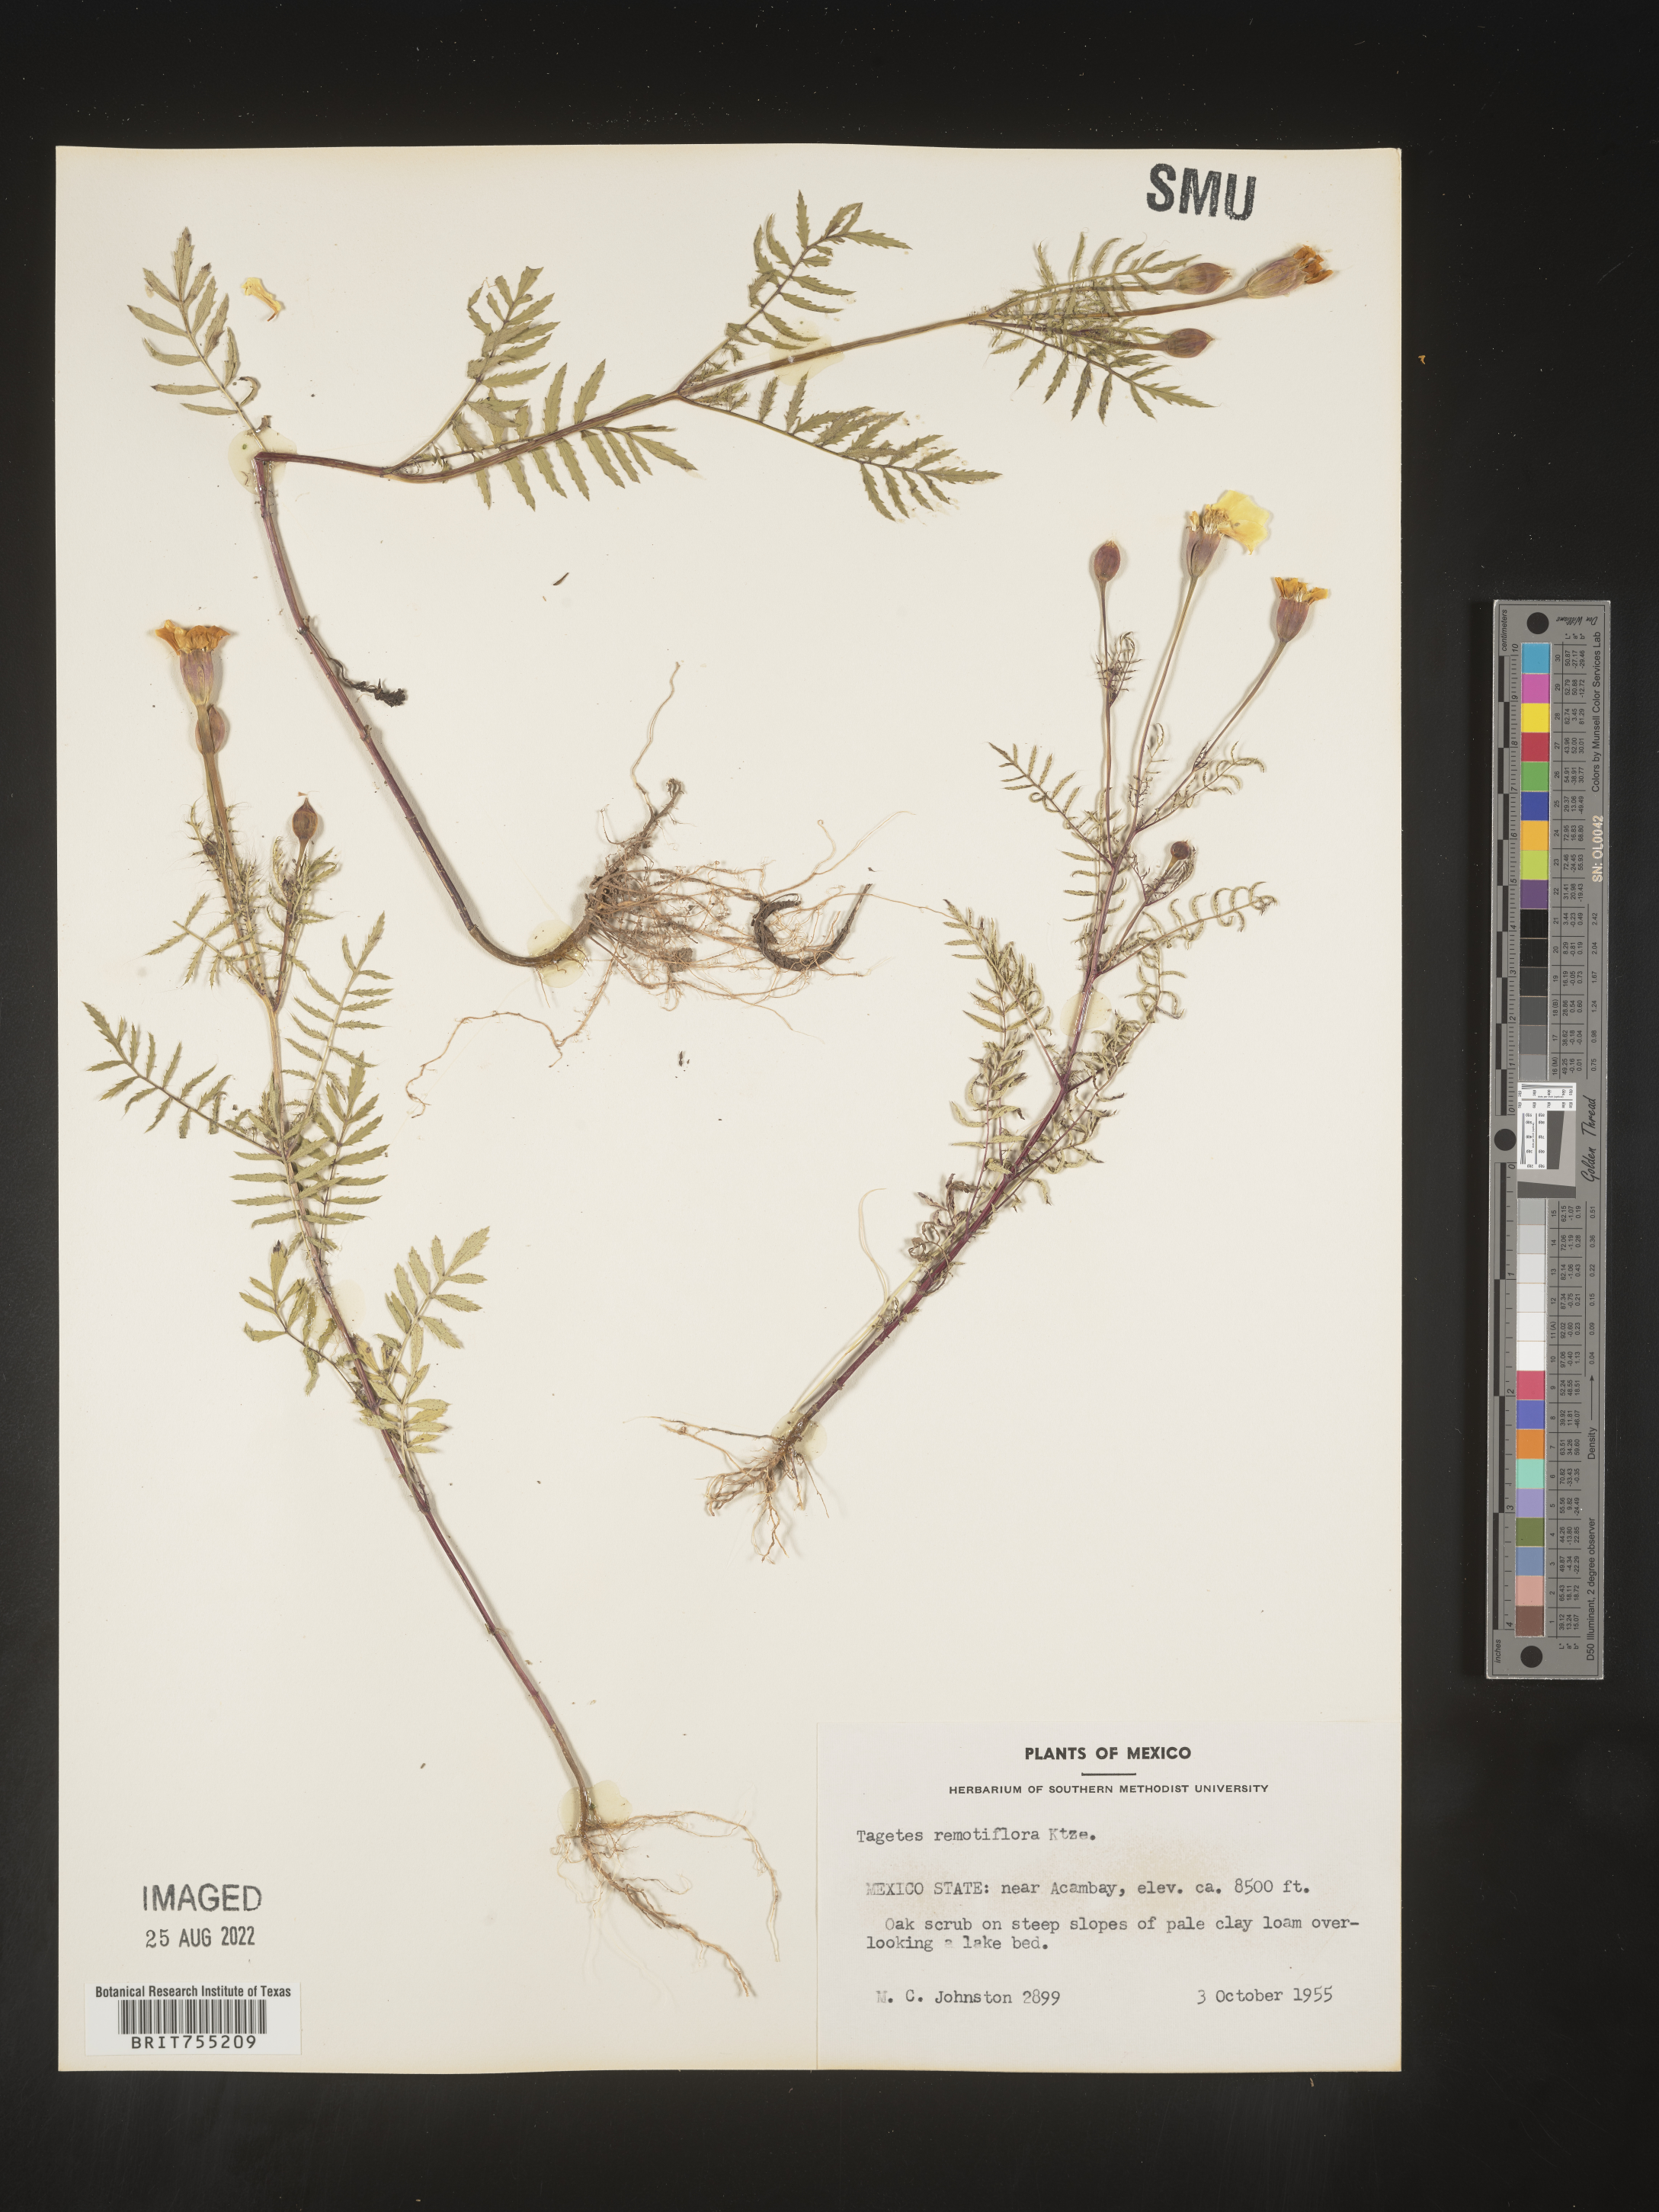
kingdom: Plantae
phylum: Tracheophyta
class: Magnoliopsida
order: Asterales
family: Asteraceae
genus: Tagetes
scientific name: Tagetes
